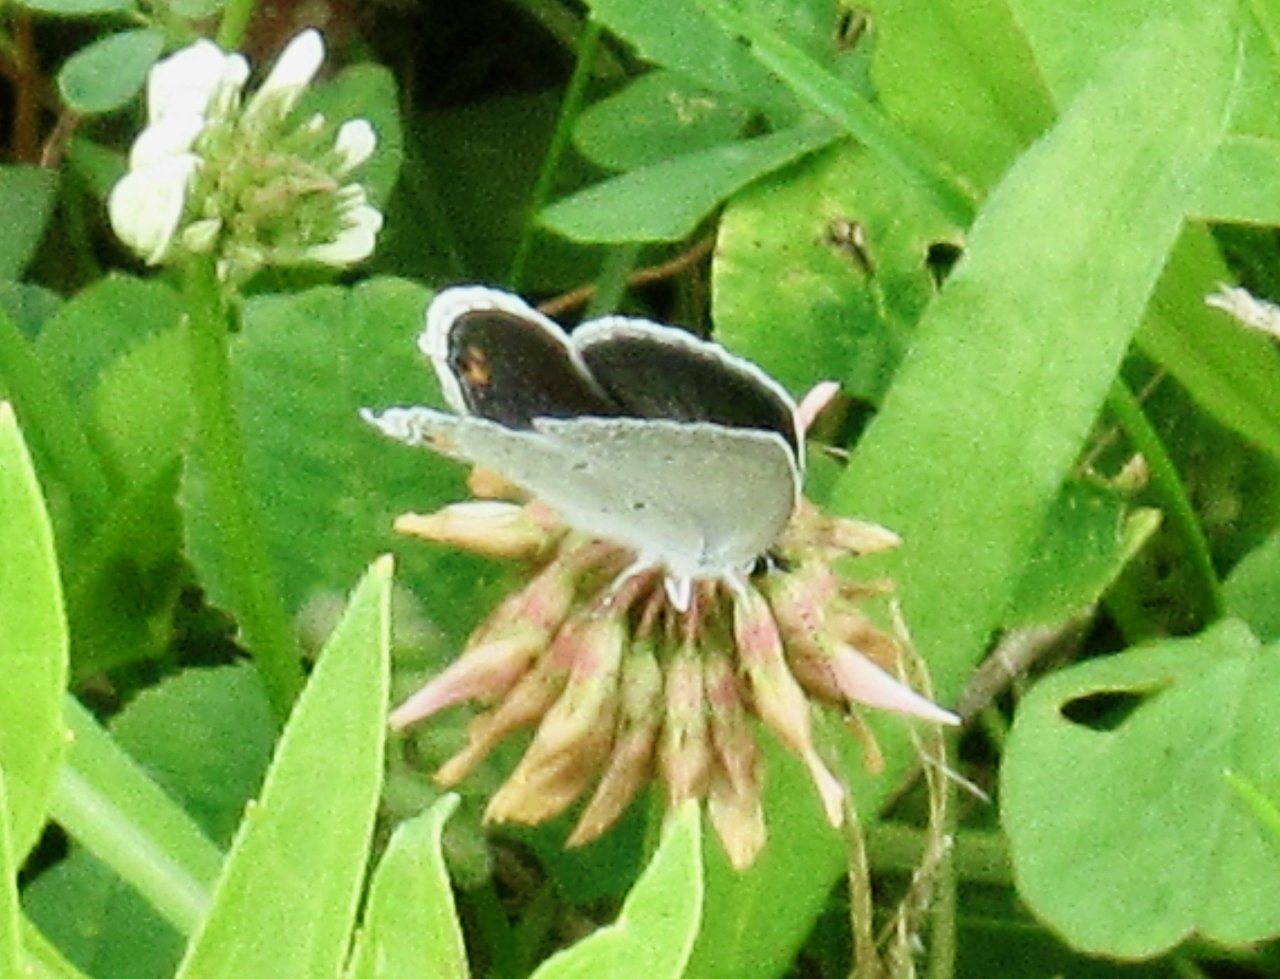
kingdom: Animalia
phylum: Arthropoda
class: Insecta
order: Lepidoptera
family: Lycaenidae
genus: Elkalyce
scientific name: Elkalyce comyntas
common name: Eastern Tailed-Blue
